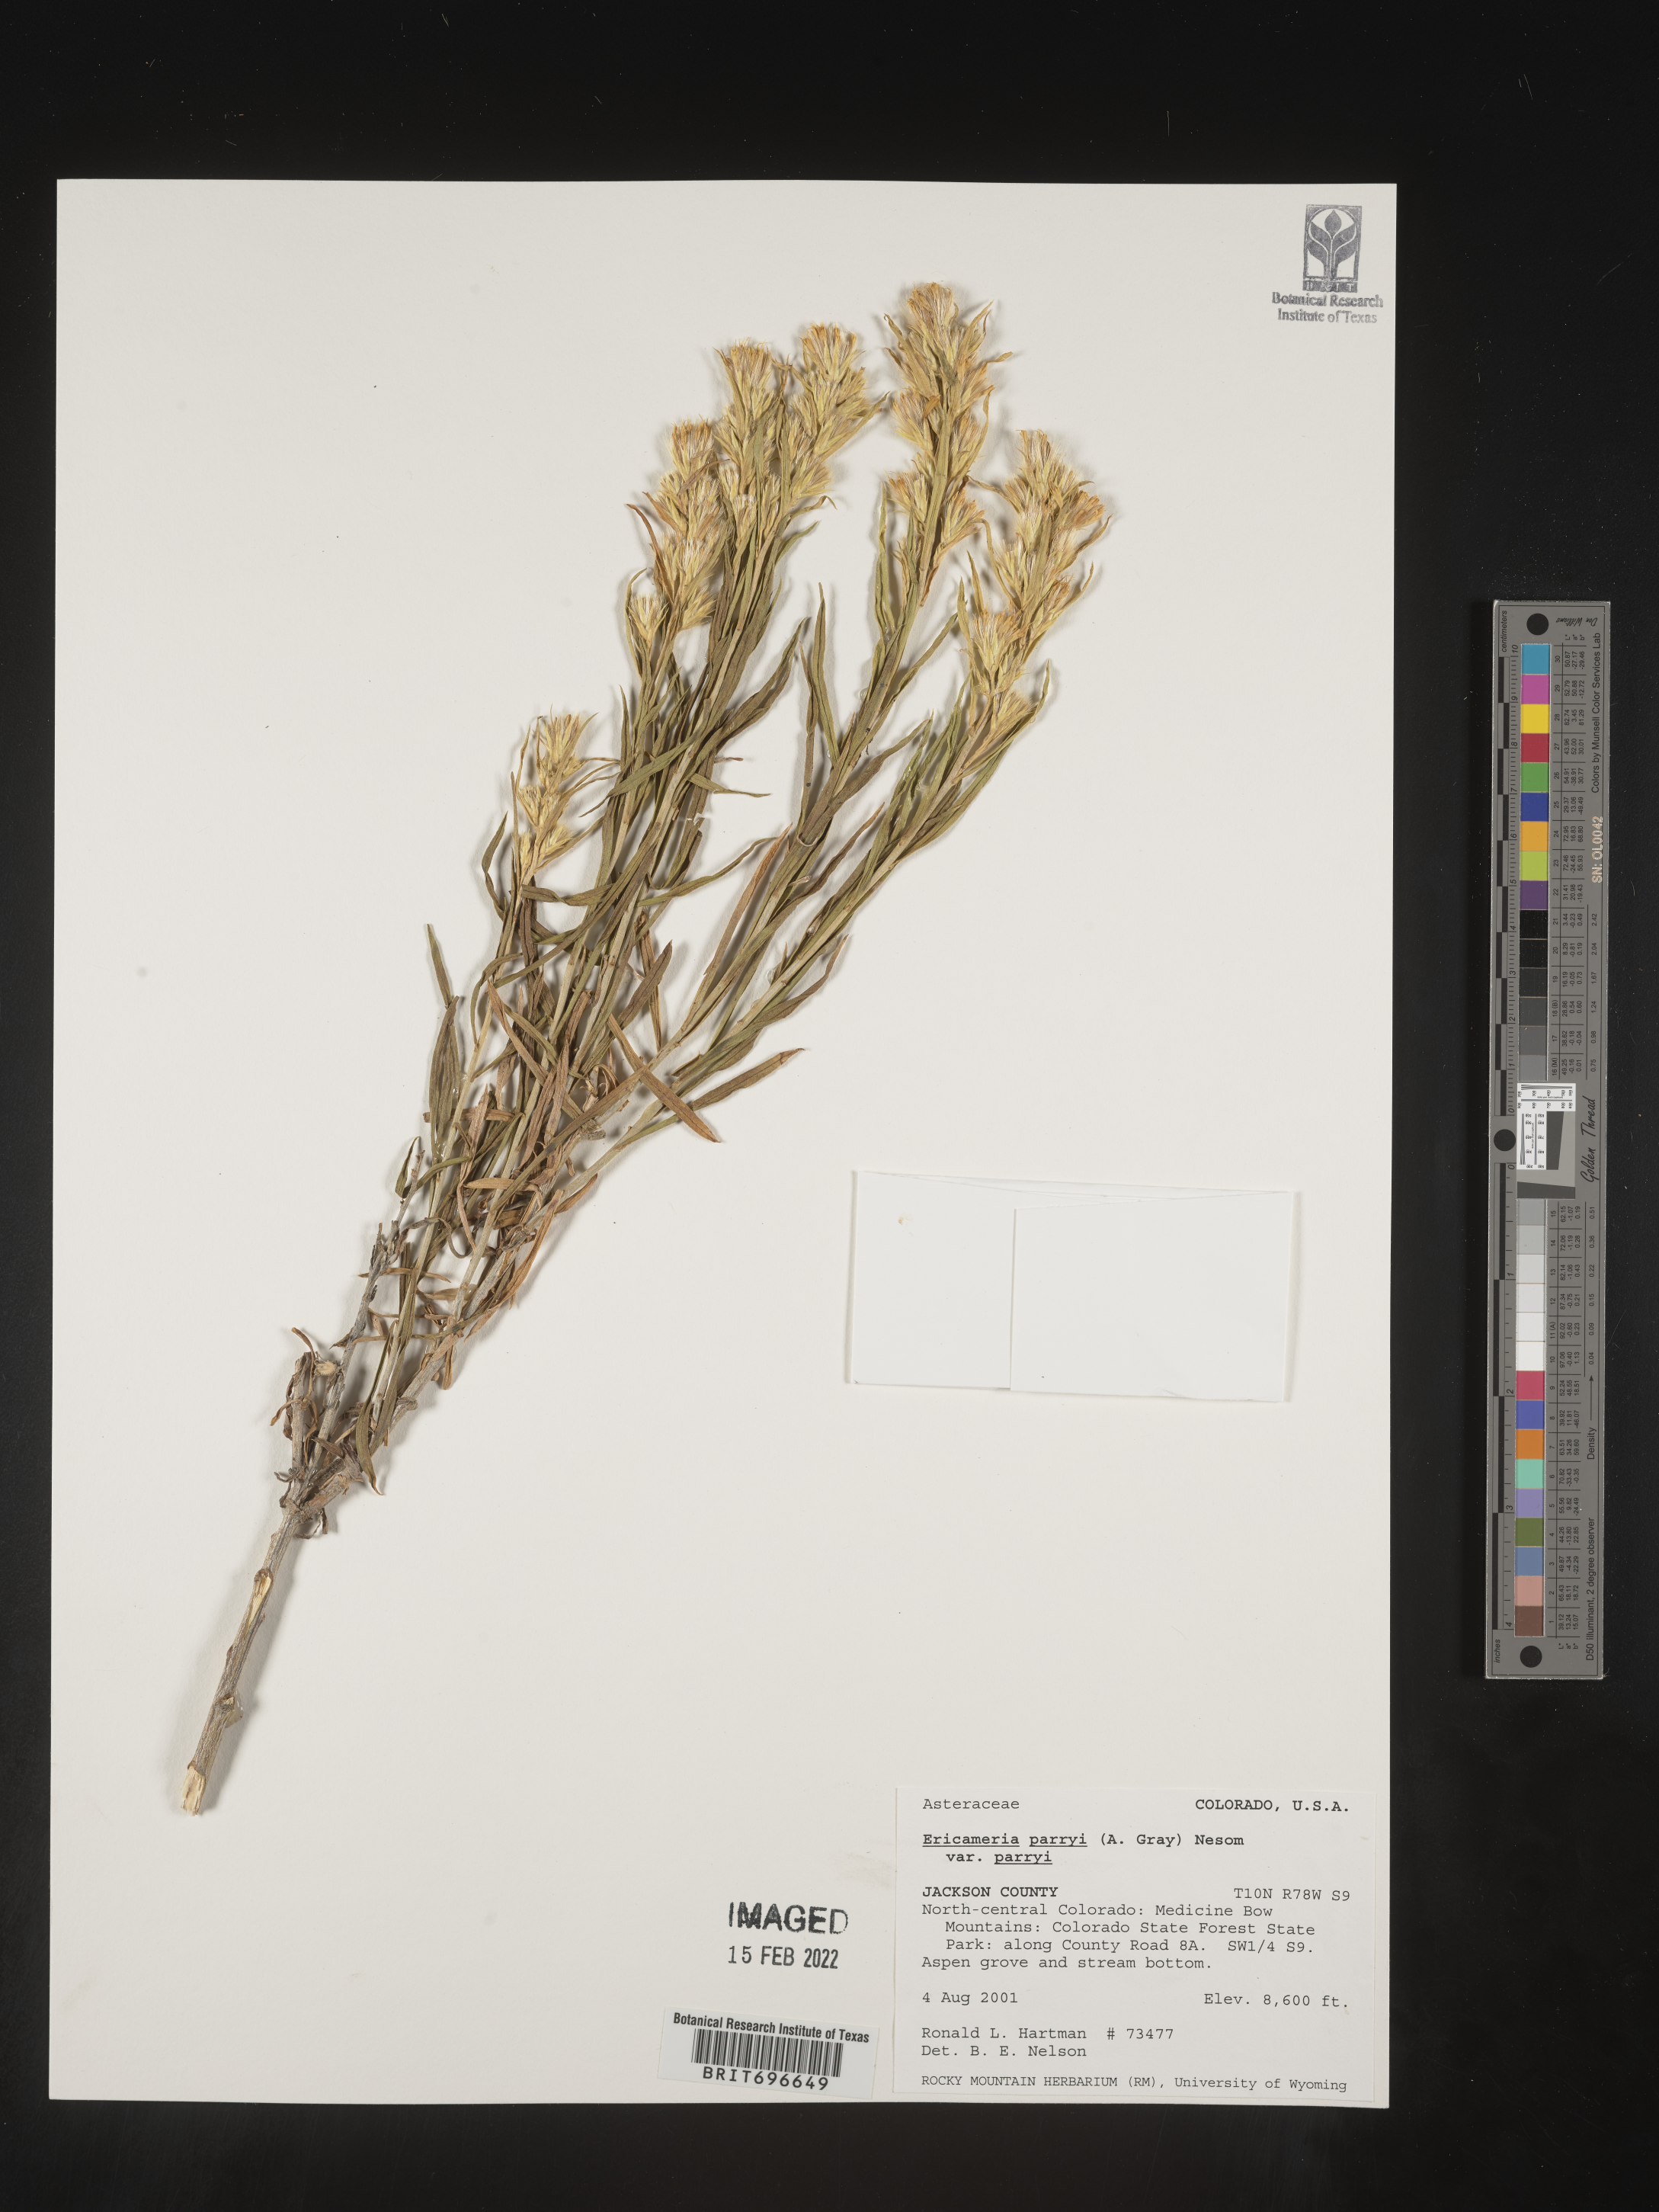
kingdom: Plantae
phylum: Tracheophyta
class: Magnoliopsida
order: Asterales
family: Asteraceae
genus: Ericameria
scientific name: Ericameria parryi
